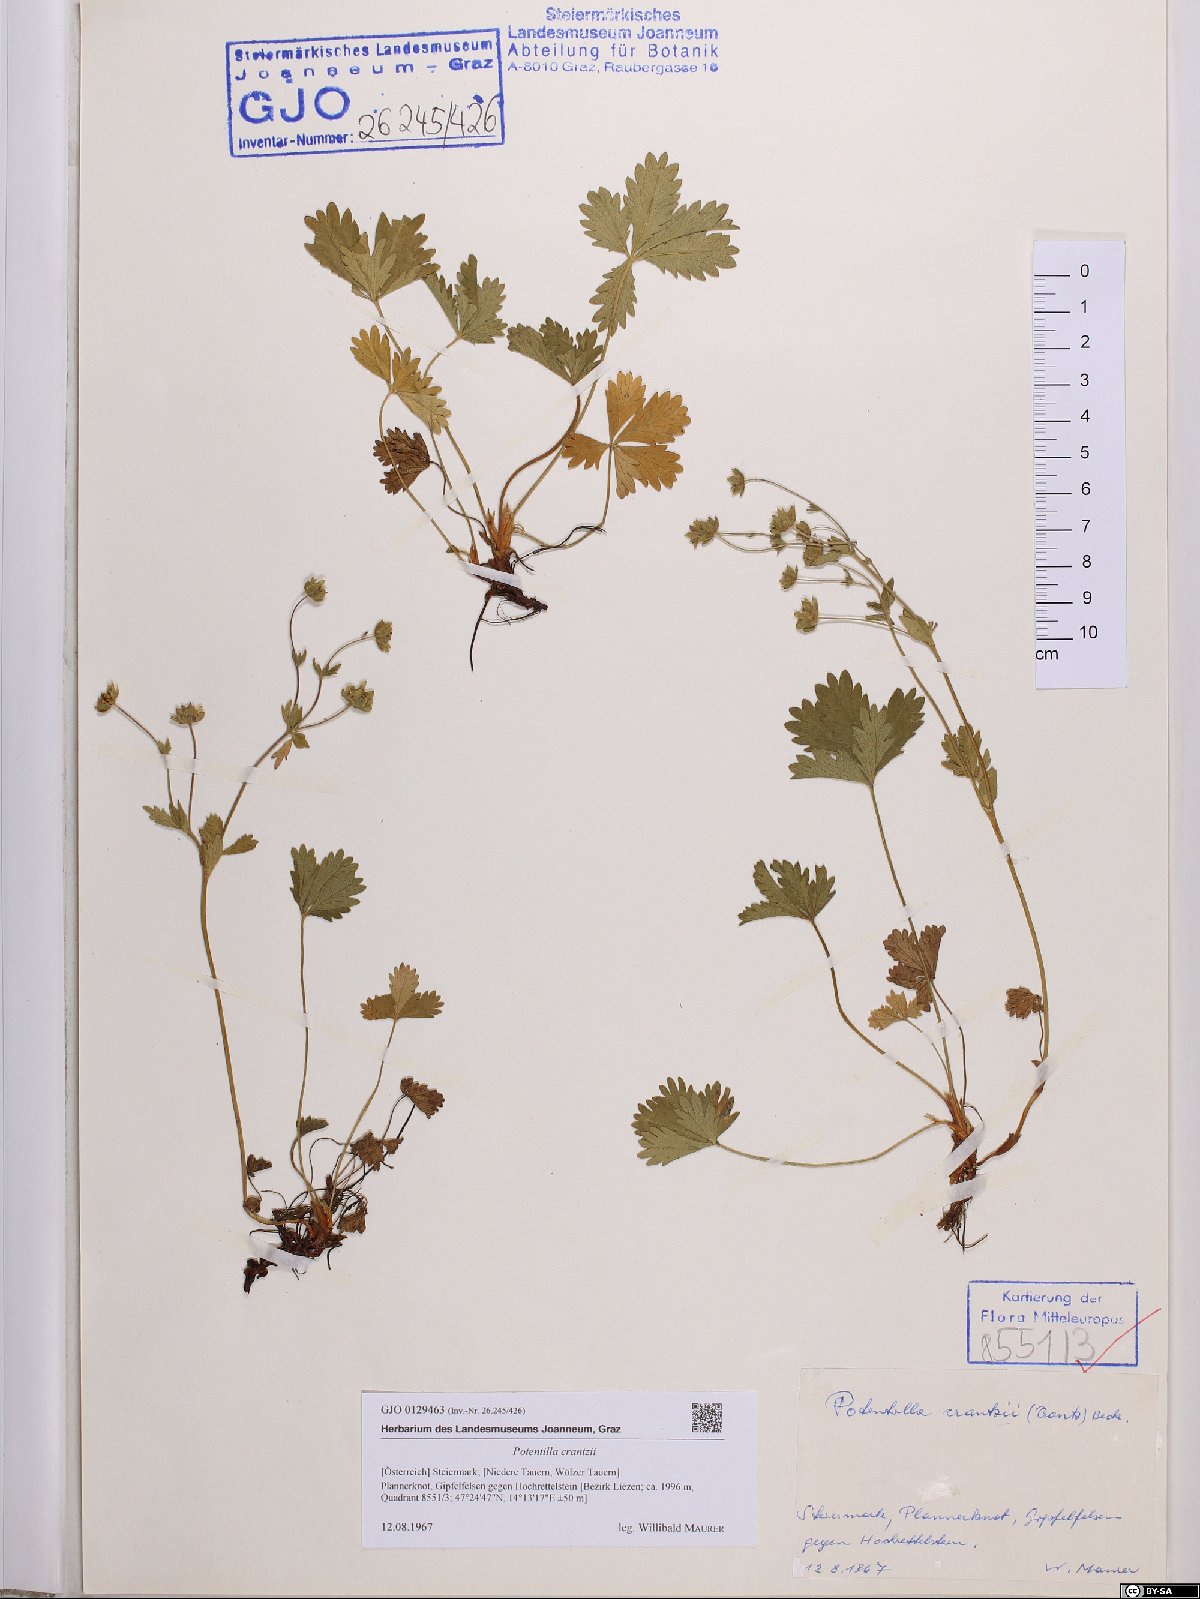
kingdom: Plantae
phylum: Tracheophyta
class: Magnoliopsida
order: Rosales
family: Rosaceae
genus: Potentilla
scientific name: Potentilla crantzii
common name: Alpine cinquefoil
